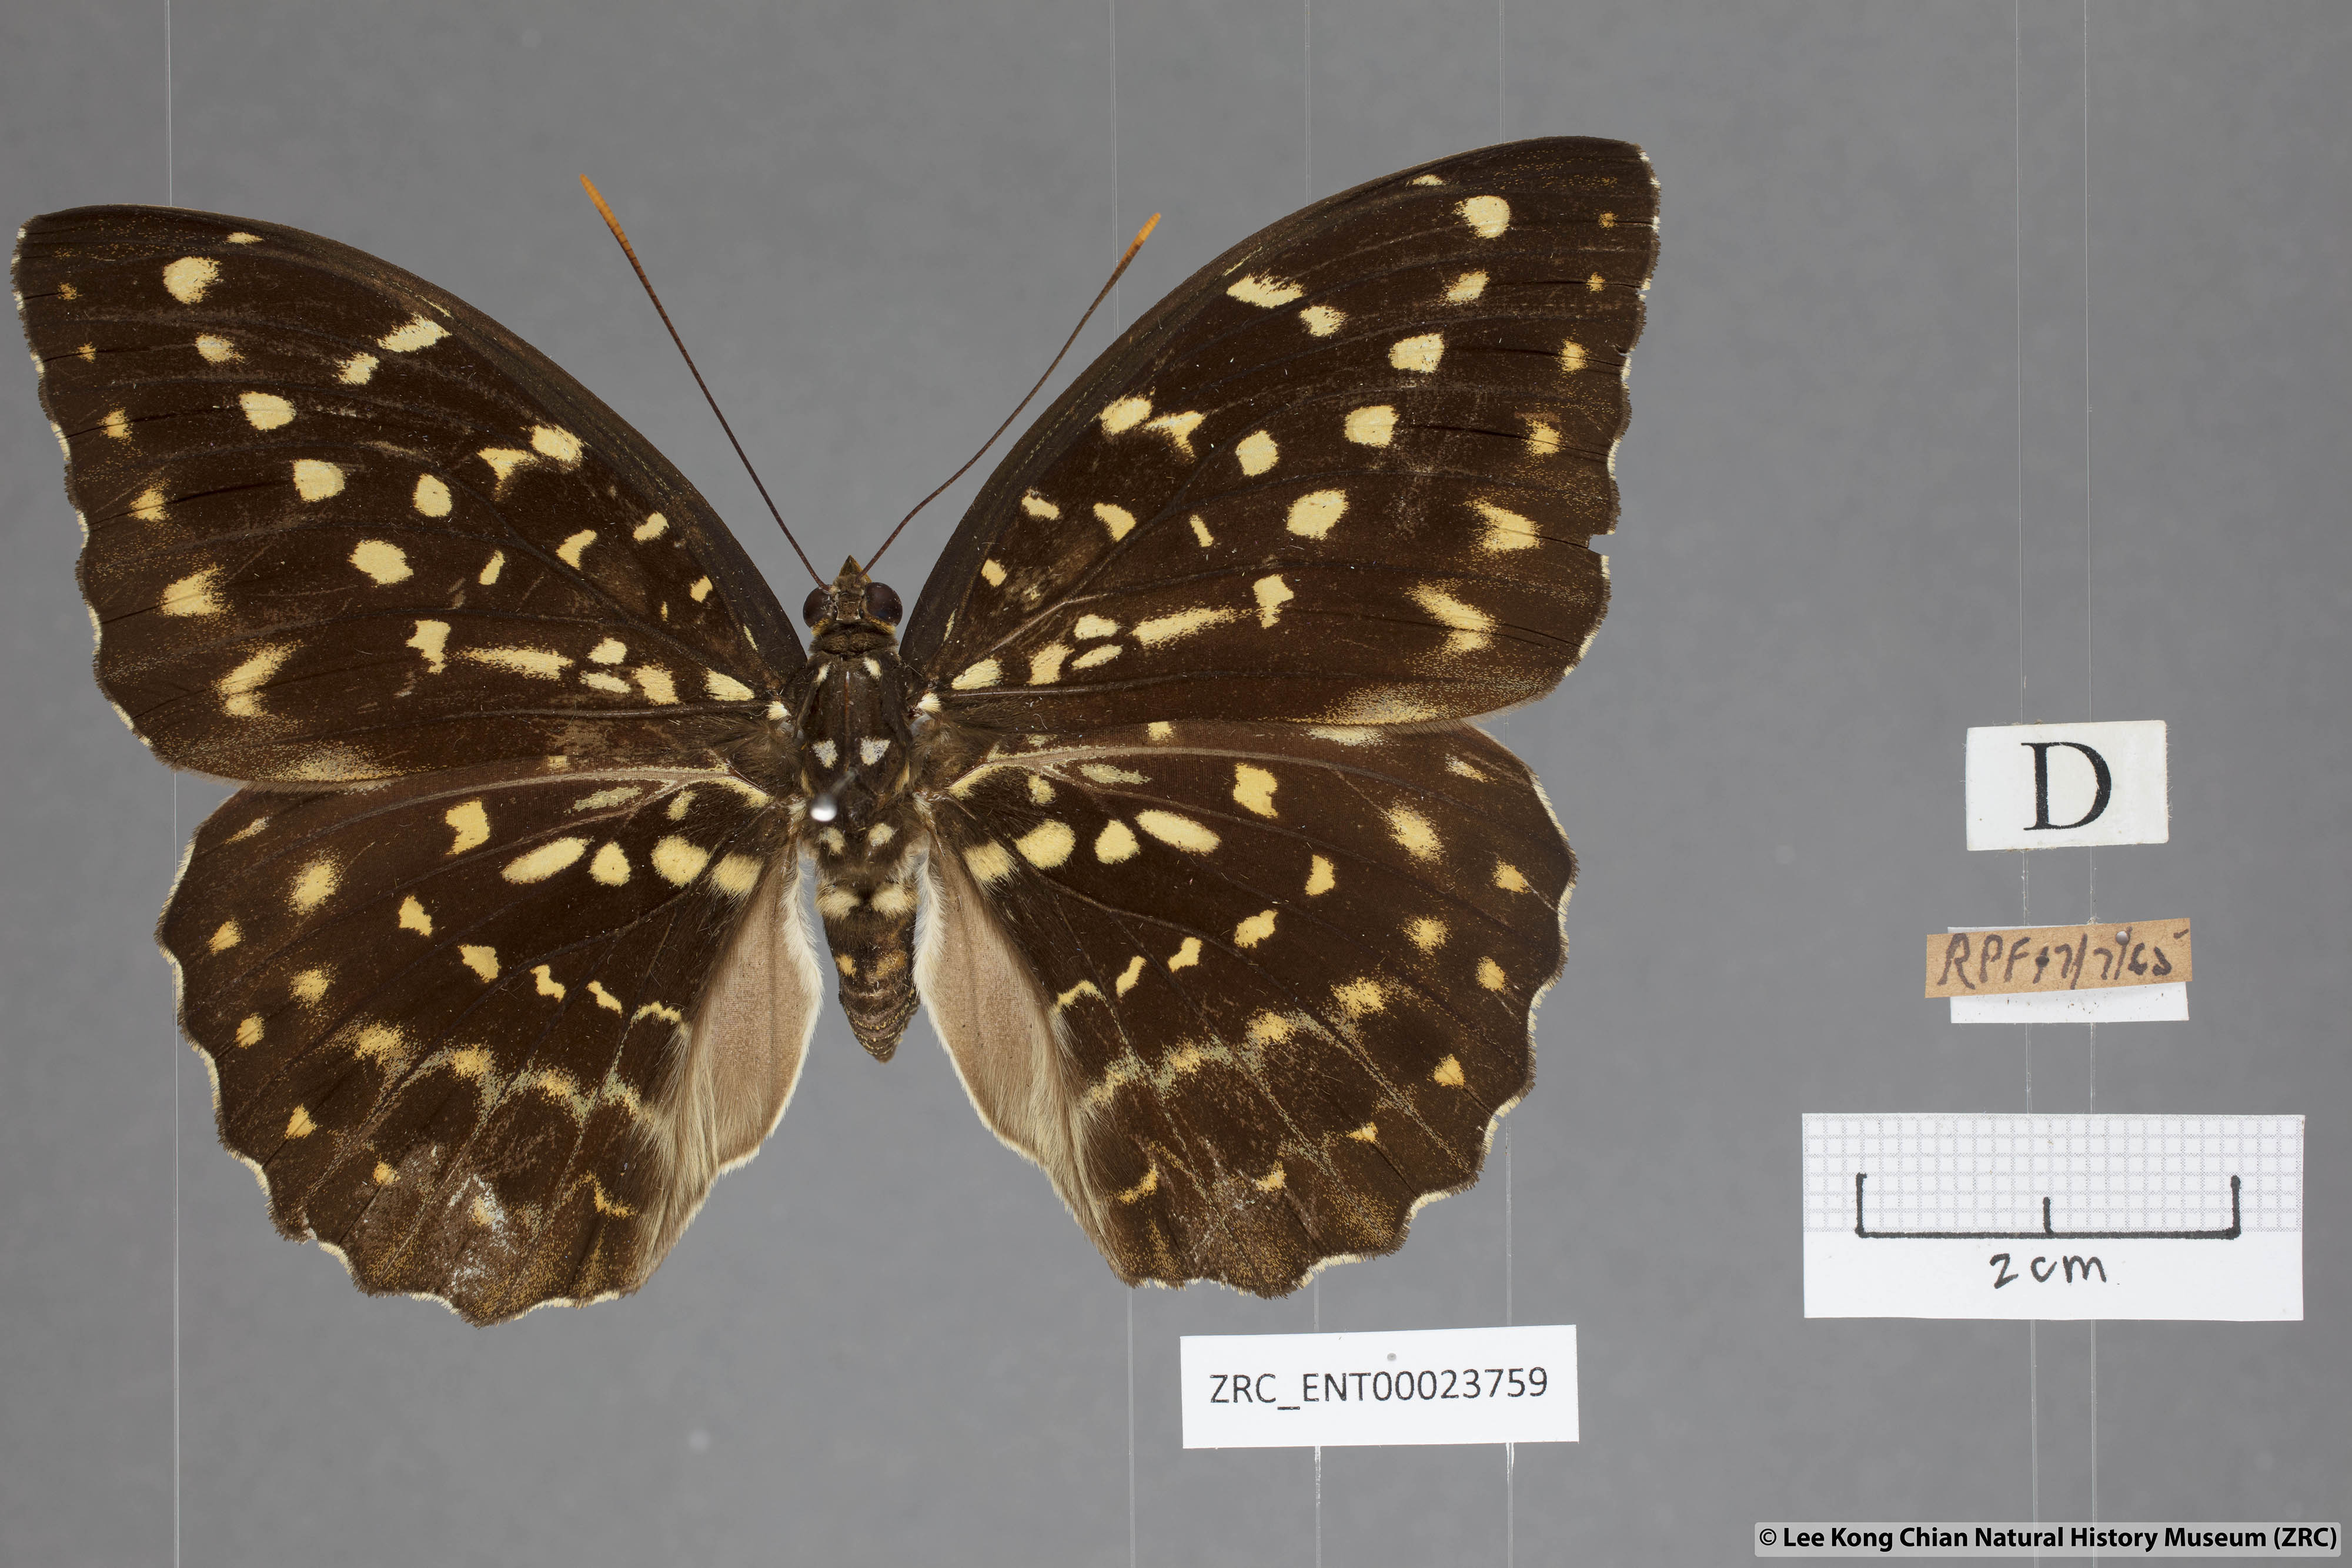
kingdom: Animalia
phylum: Arthropoda
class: Insecta
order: Lepidoptera
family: Nymphalidae
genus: Lexias
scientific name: Lexias pardalis
